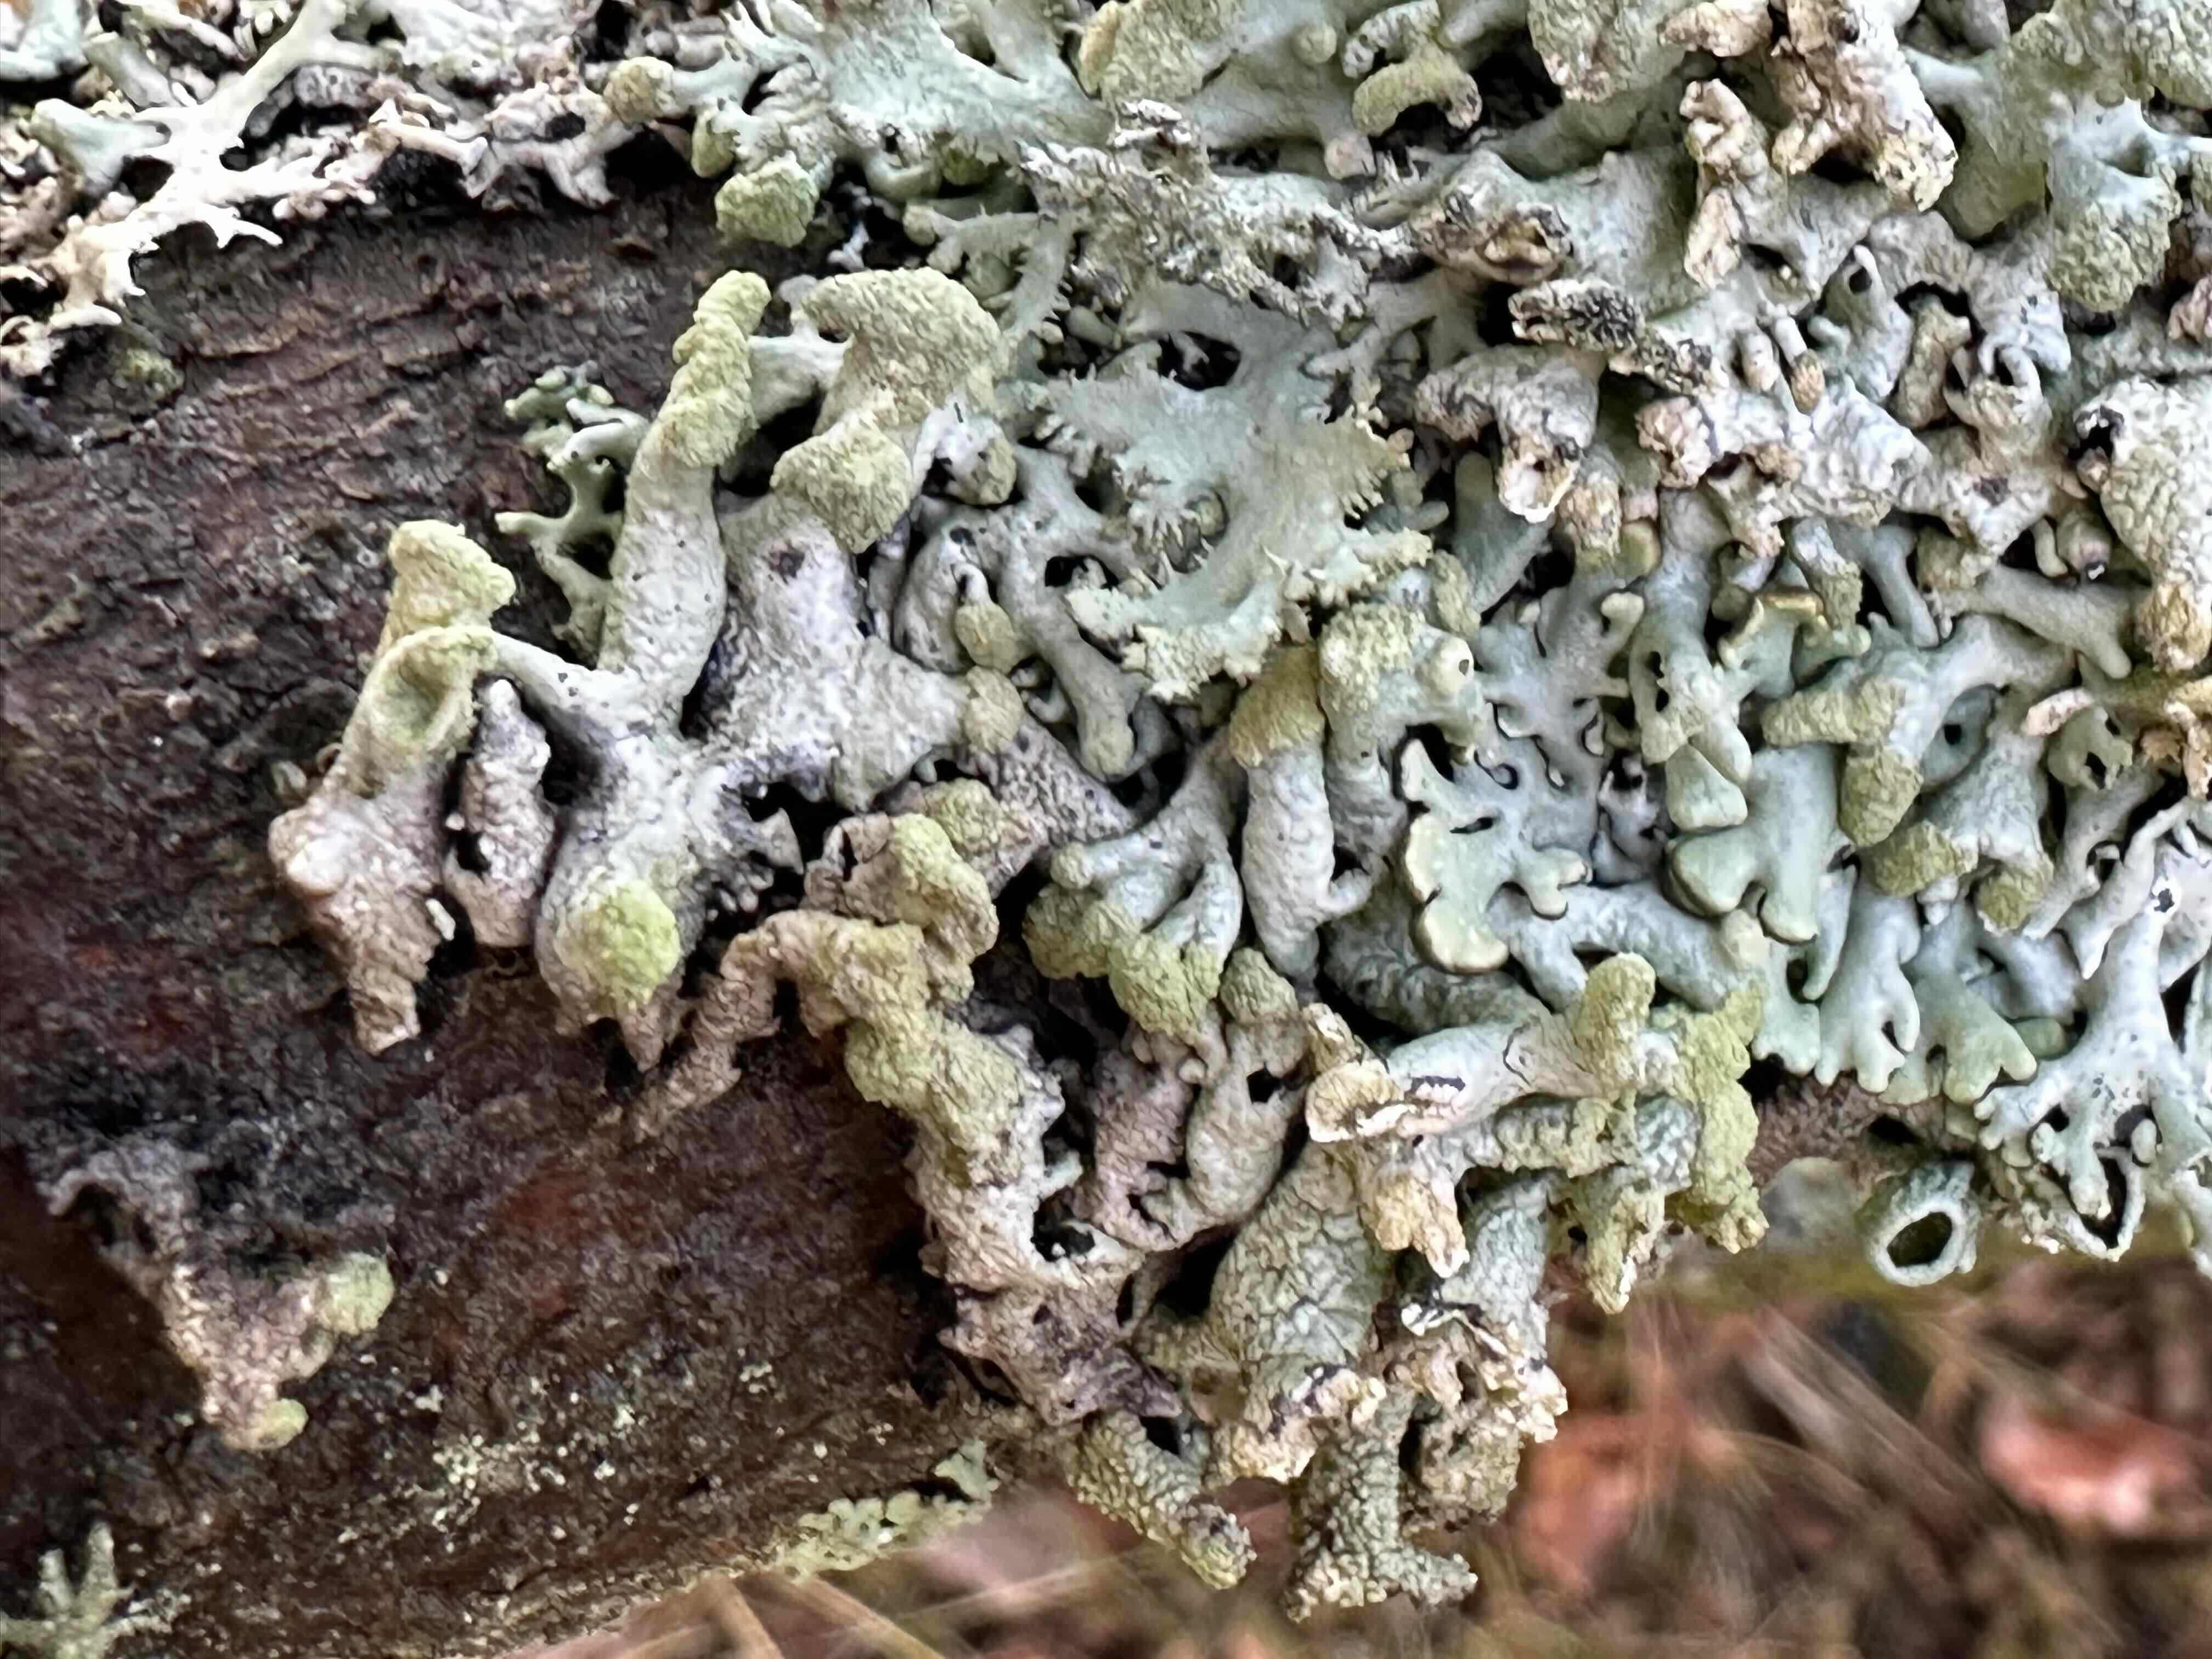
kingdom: Fungi
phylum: Ascomycota
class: Lecanoromycetes
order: Lecanorales
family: Parmeliaceae
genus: Hypogymnia
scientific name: Hypogymnia tubulosa
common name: finger-kvistlav
